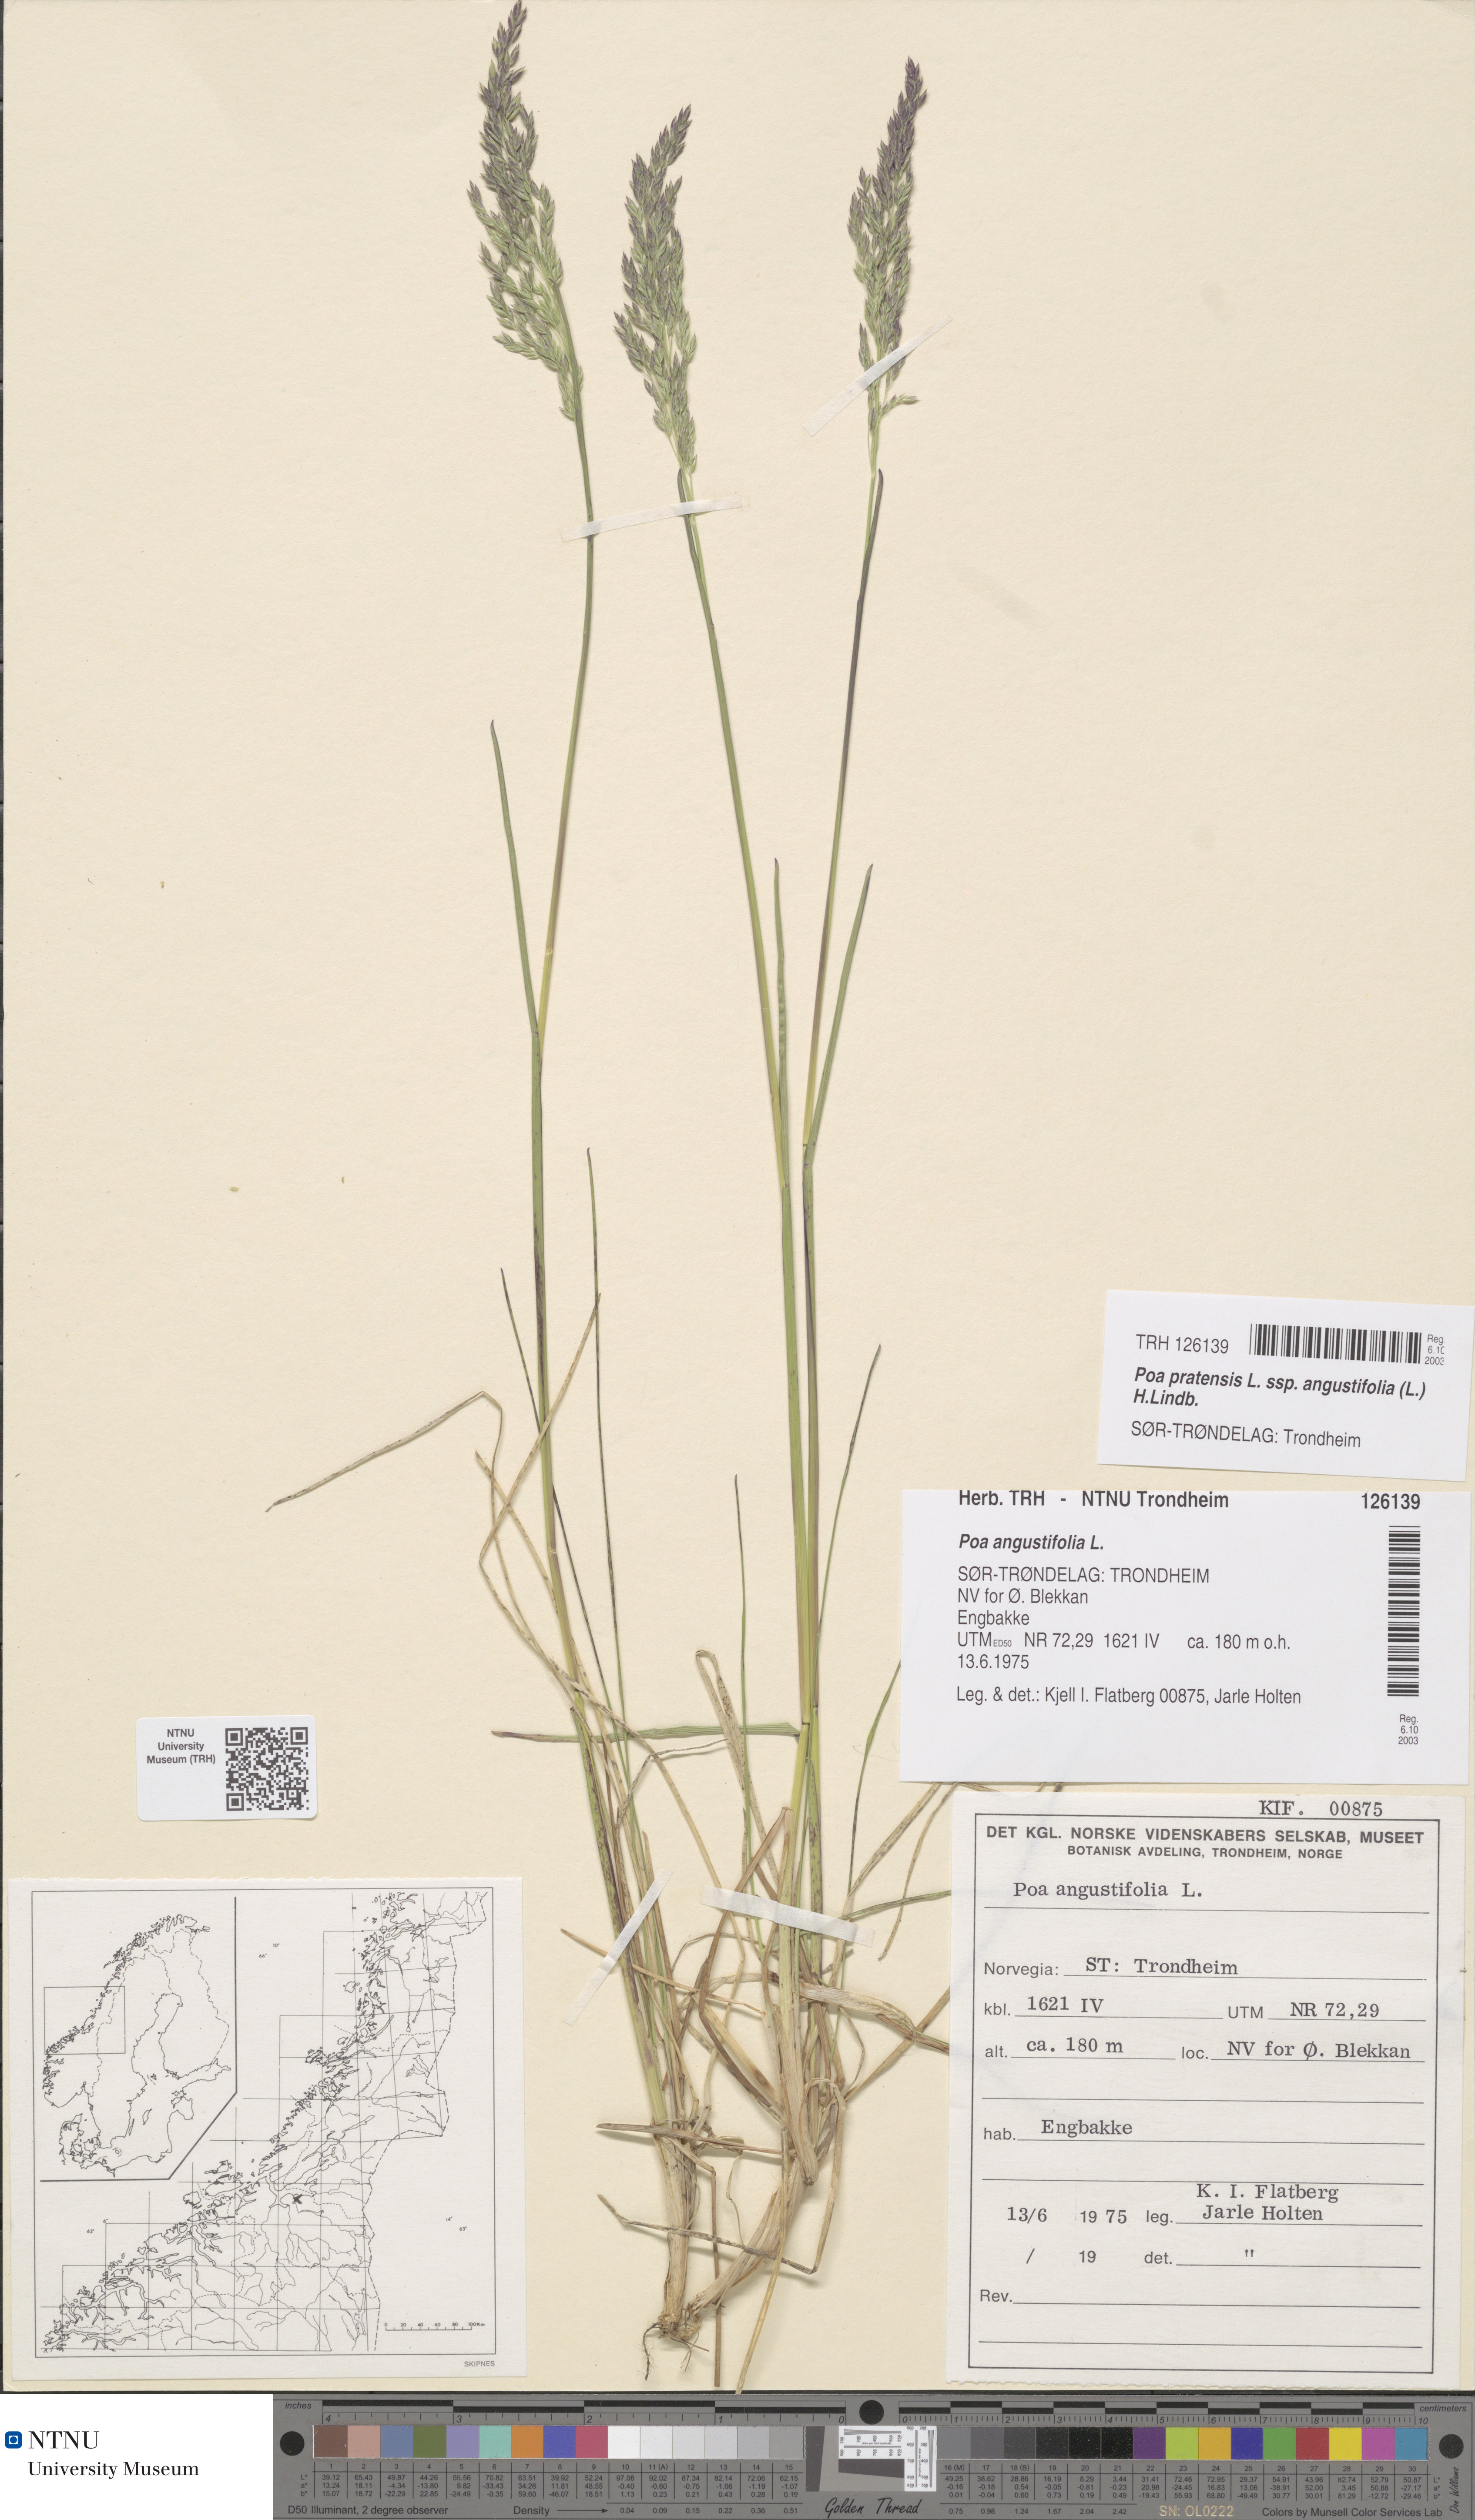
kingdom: Plantae
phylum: Tracheophyta
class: Liliopsida
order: Poales
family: Poaceae
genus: Poa
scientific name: Poa angustifolia
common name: Narrow-leaved meadow-grass
